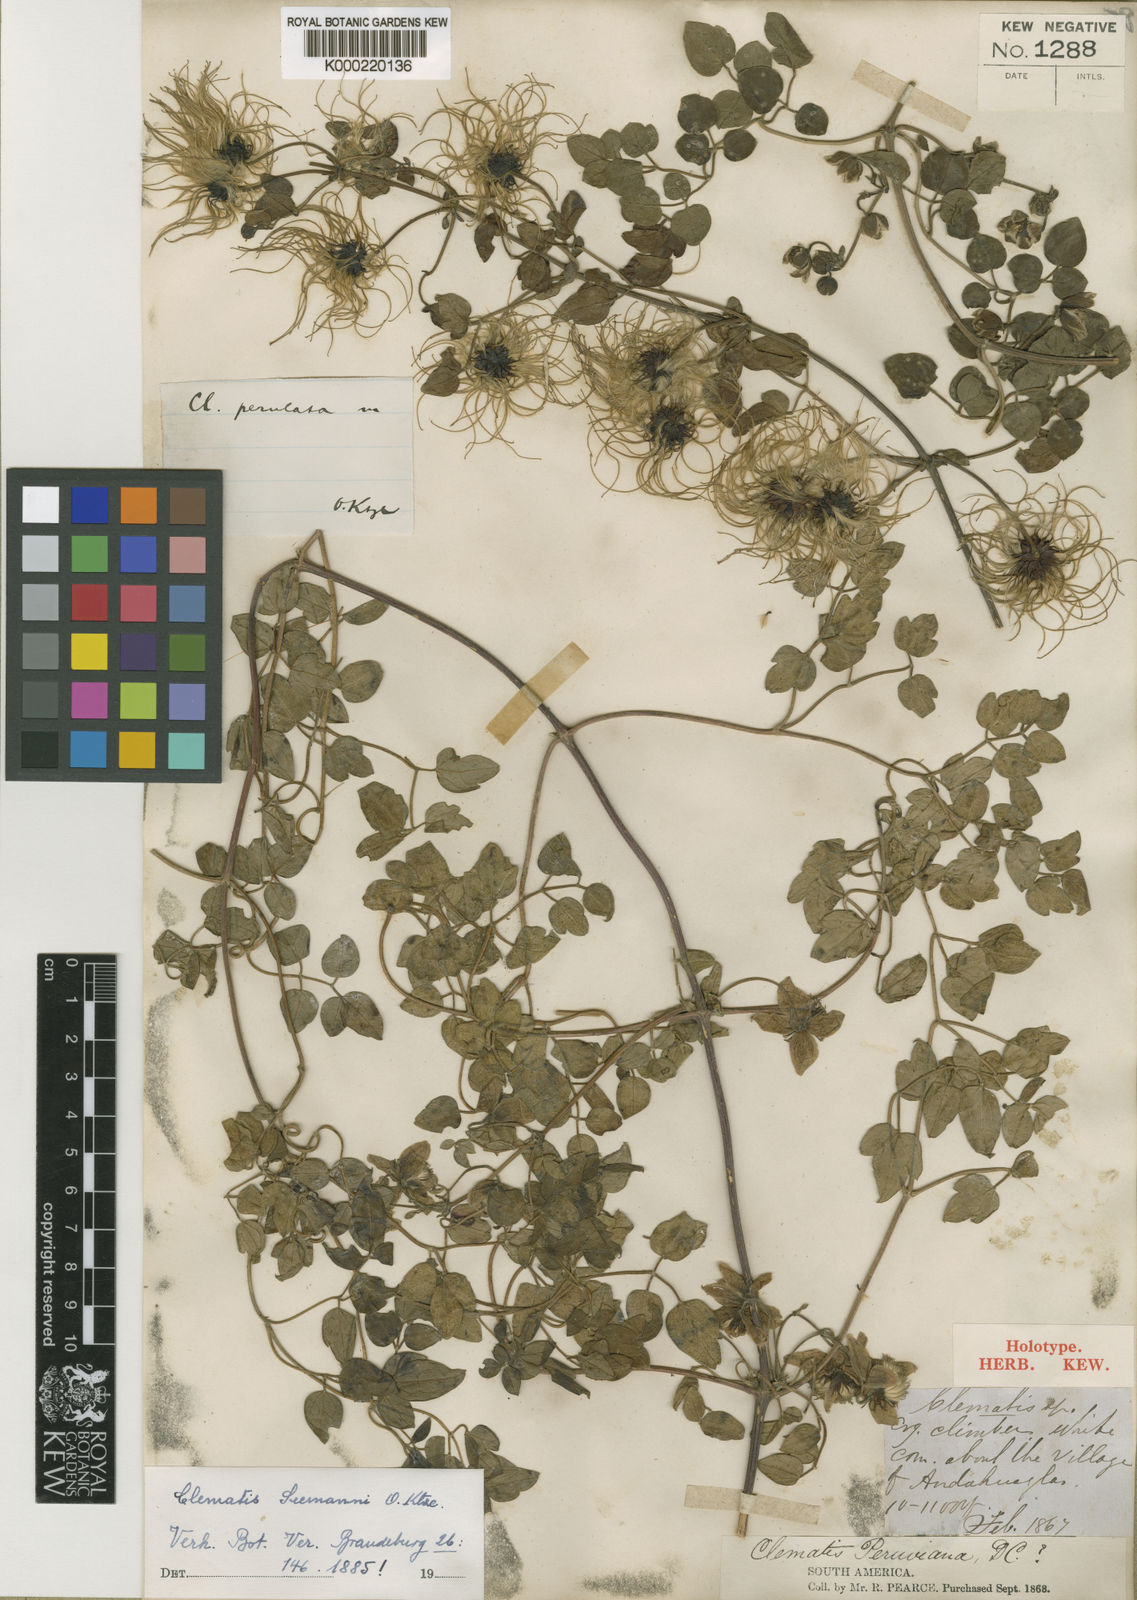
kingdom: Plantae
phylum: Tracheophyta
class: Magnoliopsida
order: Ranunculales
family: Ranunculaceae
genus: Clematis
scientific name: Clematis millefoliolata
